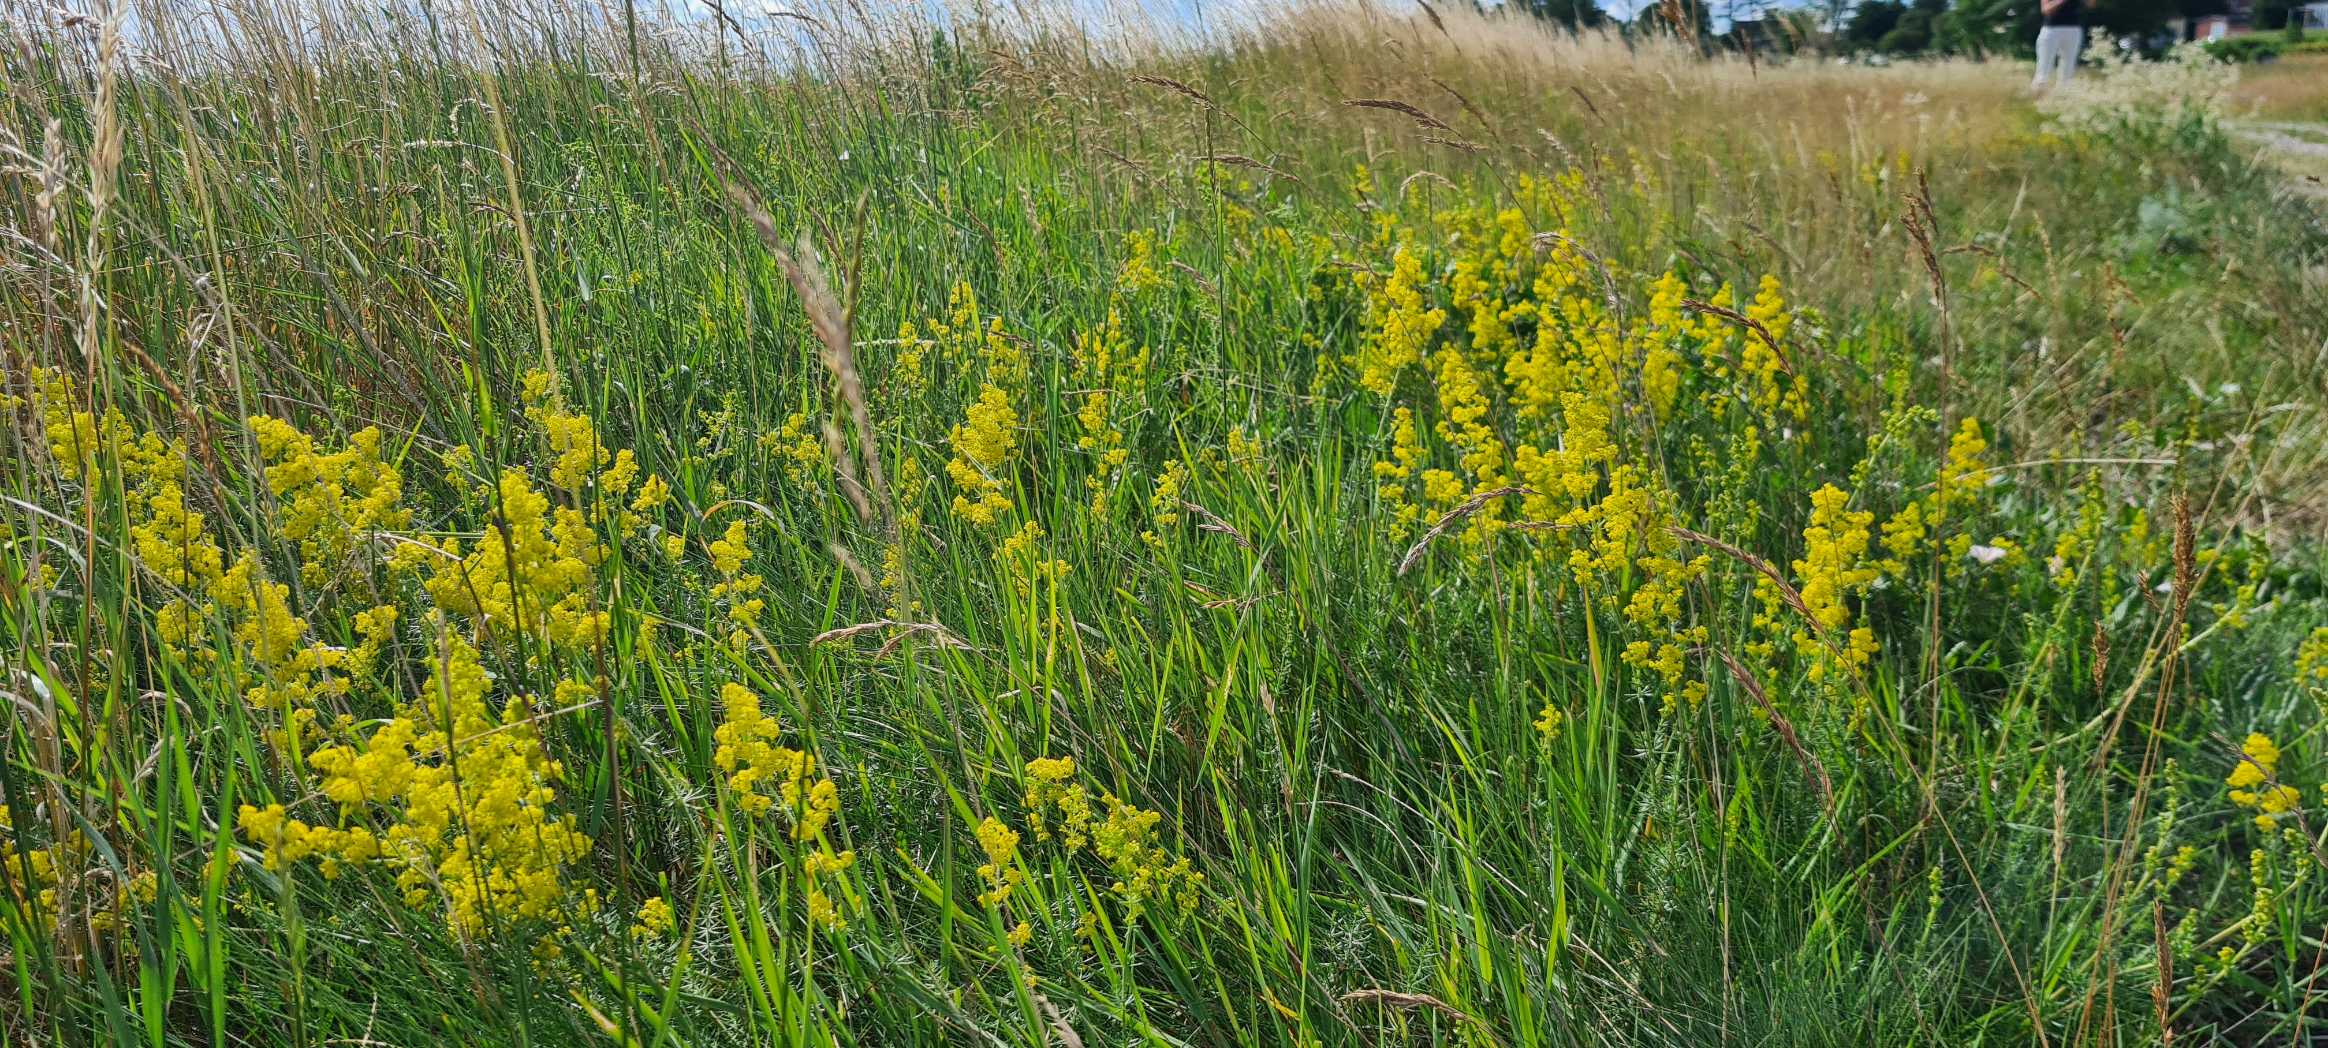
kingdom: Plantae
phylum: Tracheophyta
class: Magnoliopsida
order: Gentianales
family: Rubiaceae
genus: Galium
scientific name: Galium verum
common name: Gul snerre
